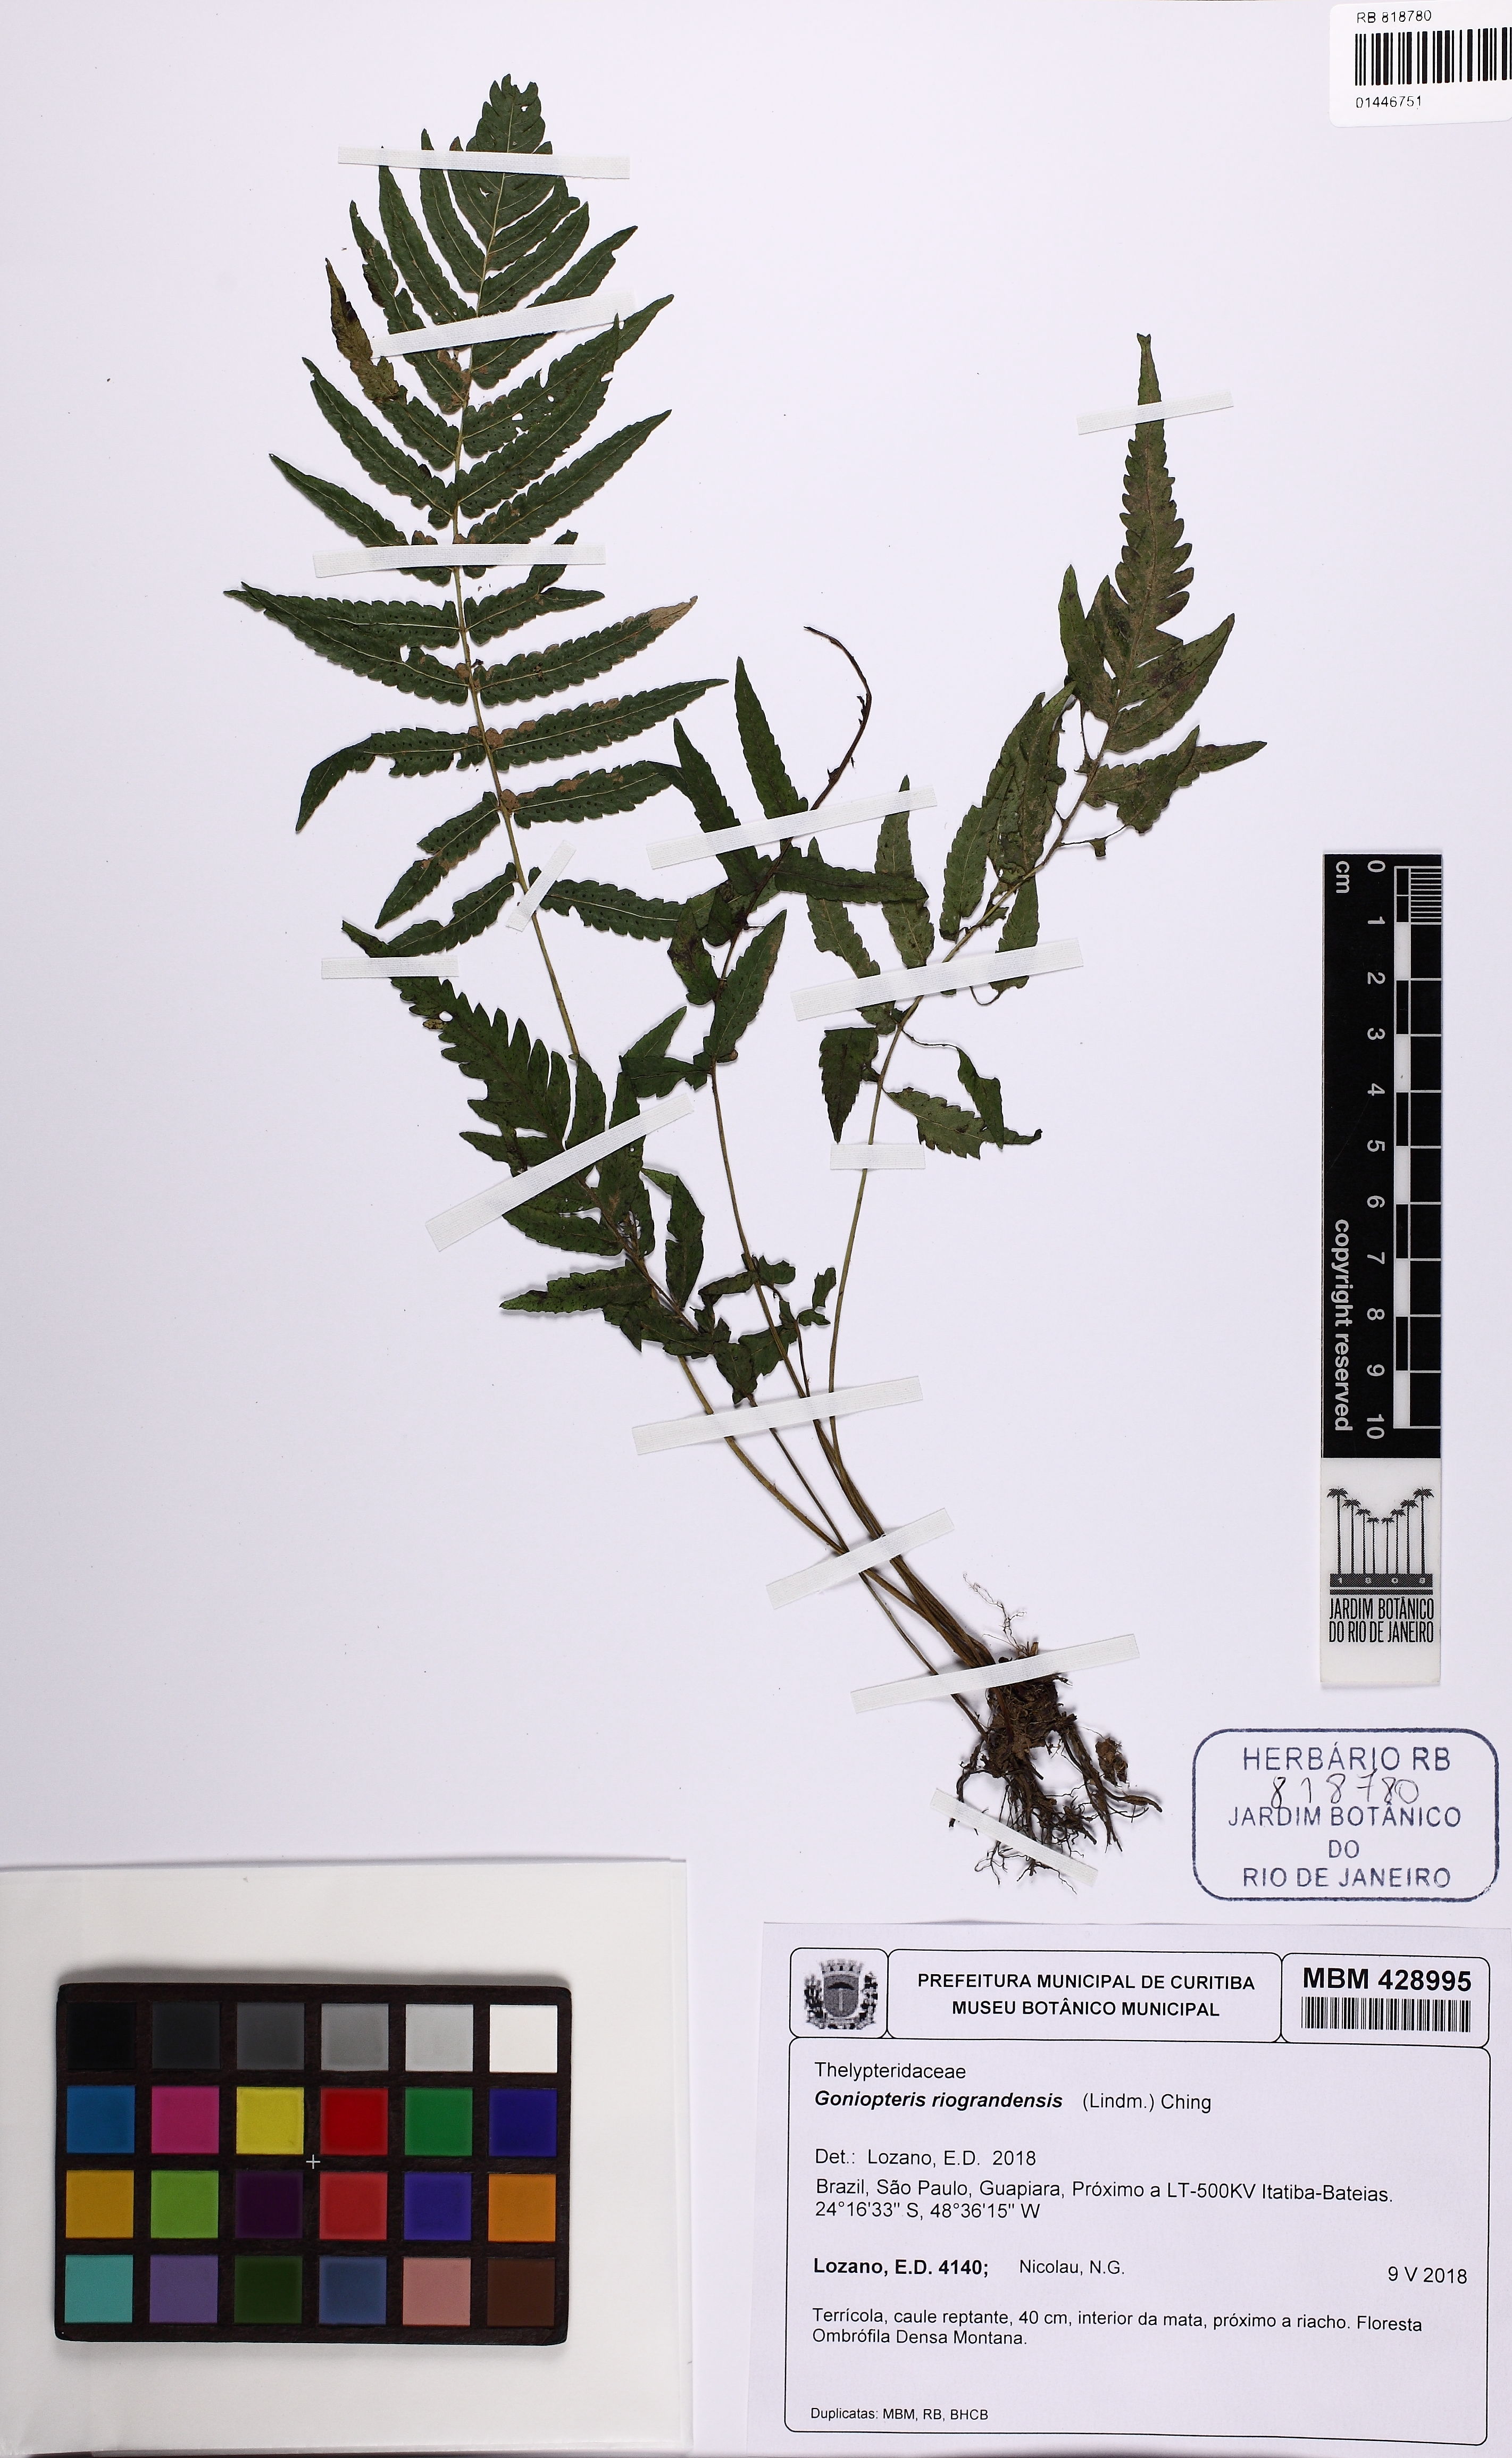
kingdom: Plantae
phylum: Tracheophyta
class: Polypodiopsida
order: Polypodiales
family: Thelypteridaceae
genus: Goniopteris
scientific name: Goniopteris riograndensis
